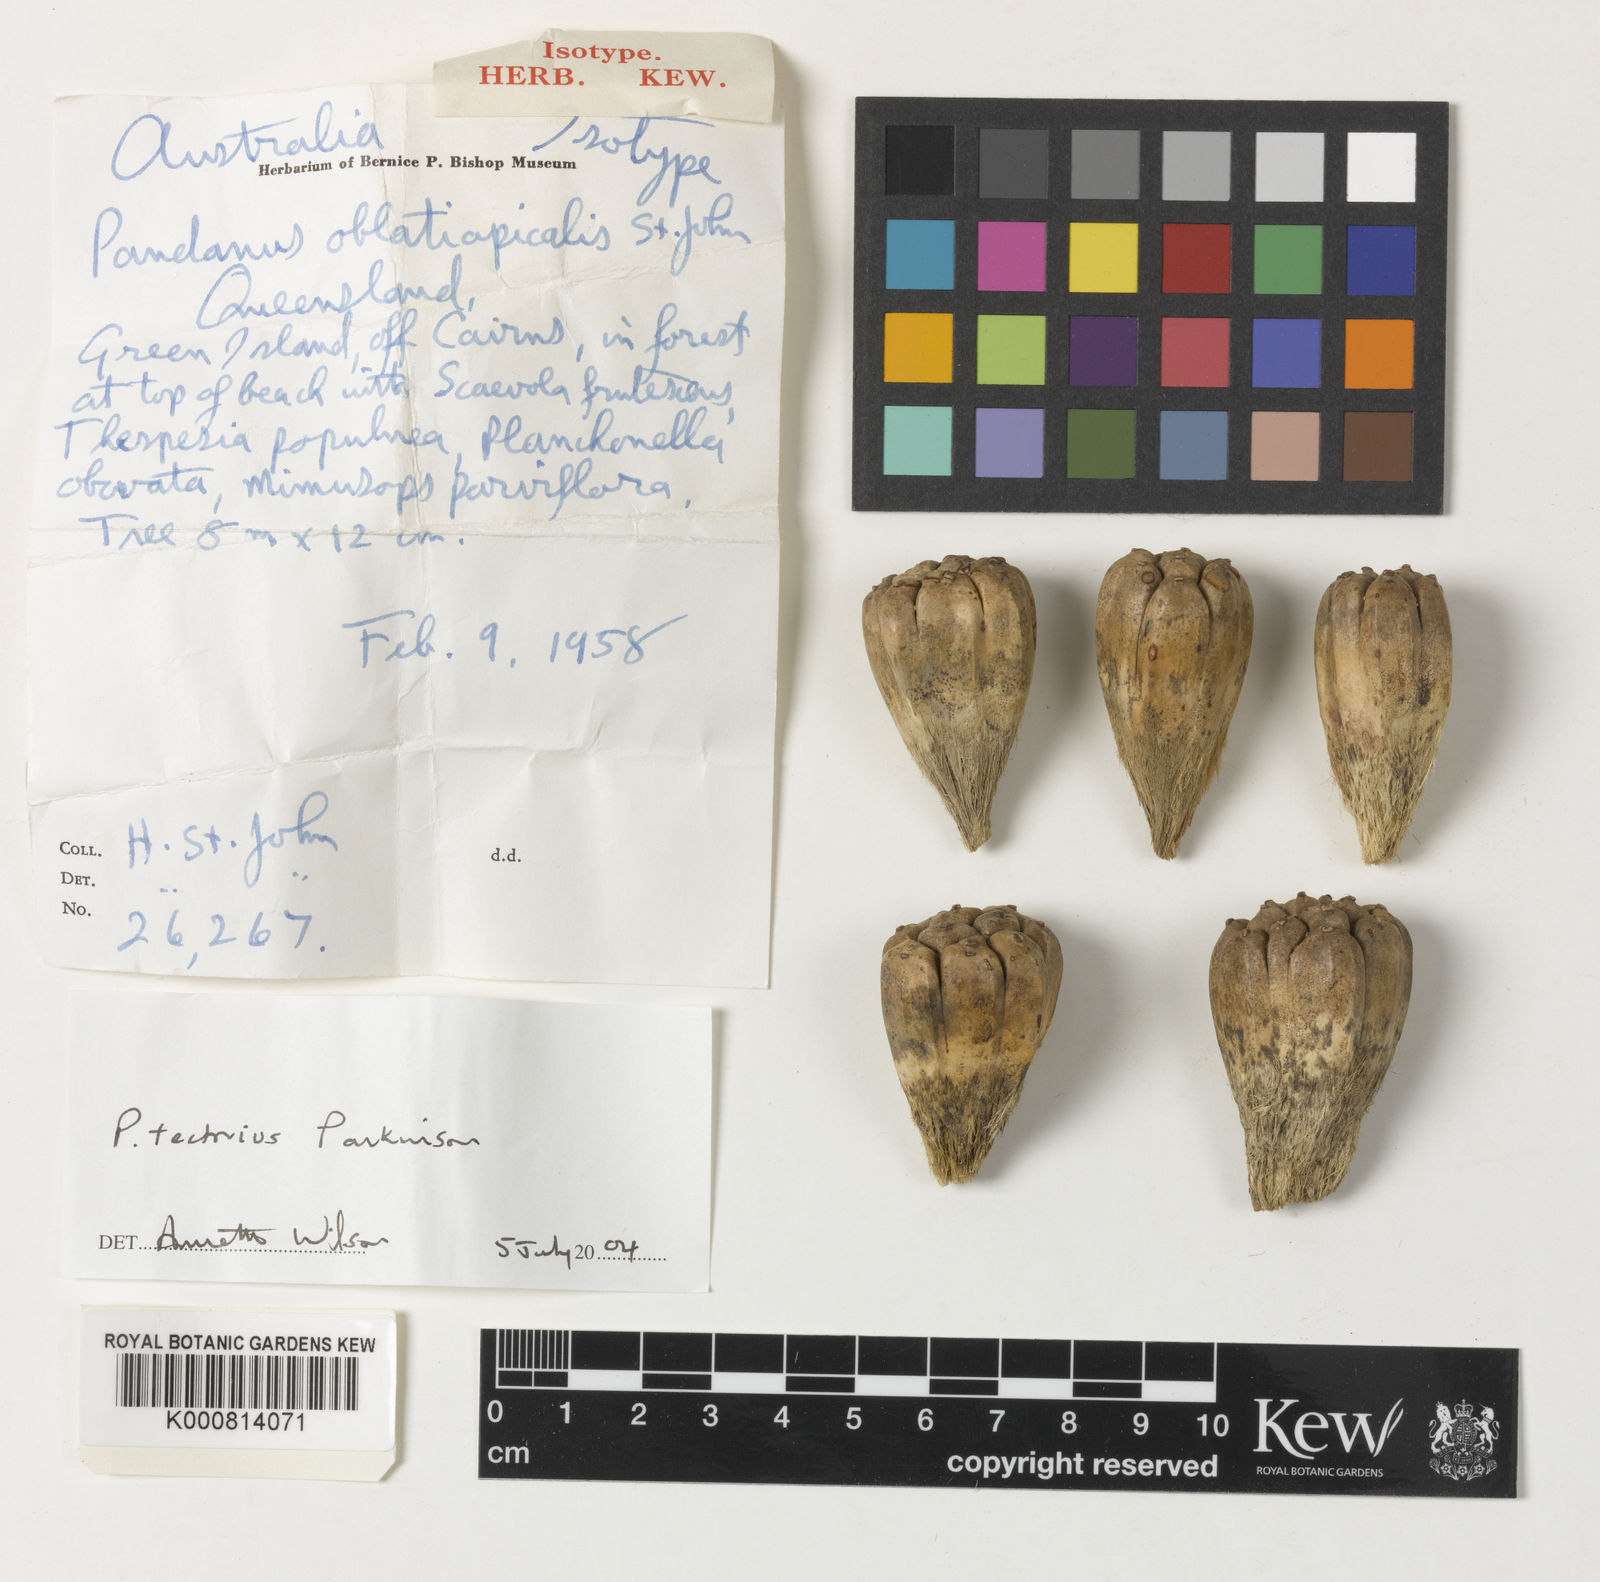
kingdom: Plantae
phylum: Tracheophyta
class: Liliopsida
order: Pandanales
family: Pandanaceae
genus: Pandanus
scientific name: Pandanus
